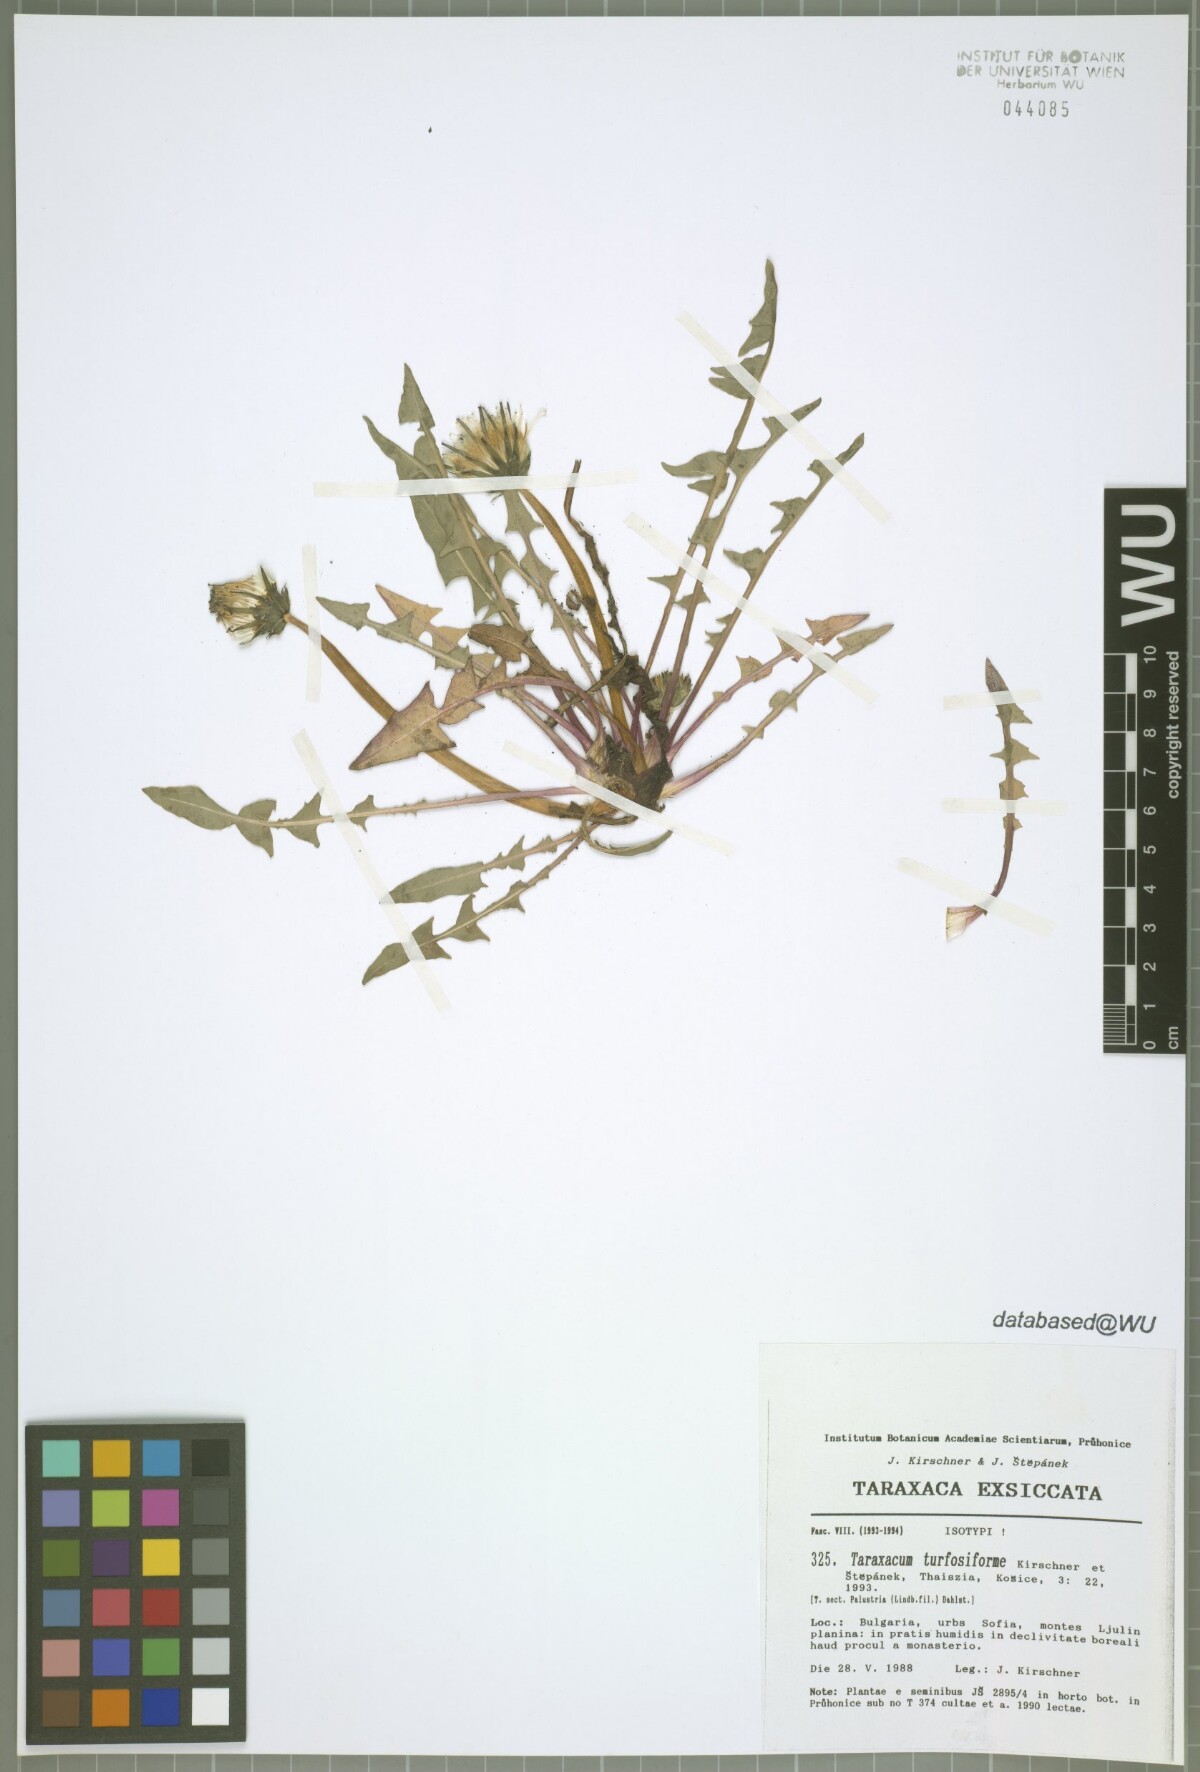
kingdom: Plantae
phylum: Tracheophyta
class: Magnoliopsida
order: Asterales
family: Asteraceae
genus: Taraxacum
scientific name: Taraxacum turfosiforme
